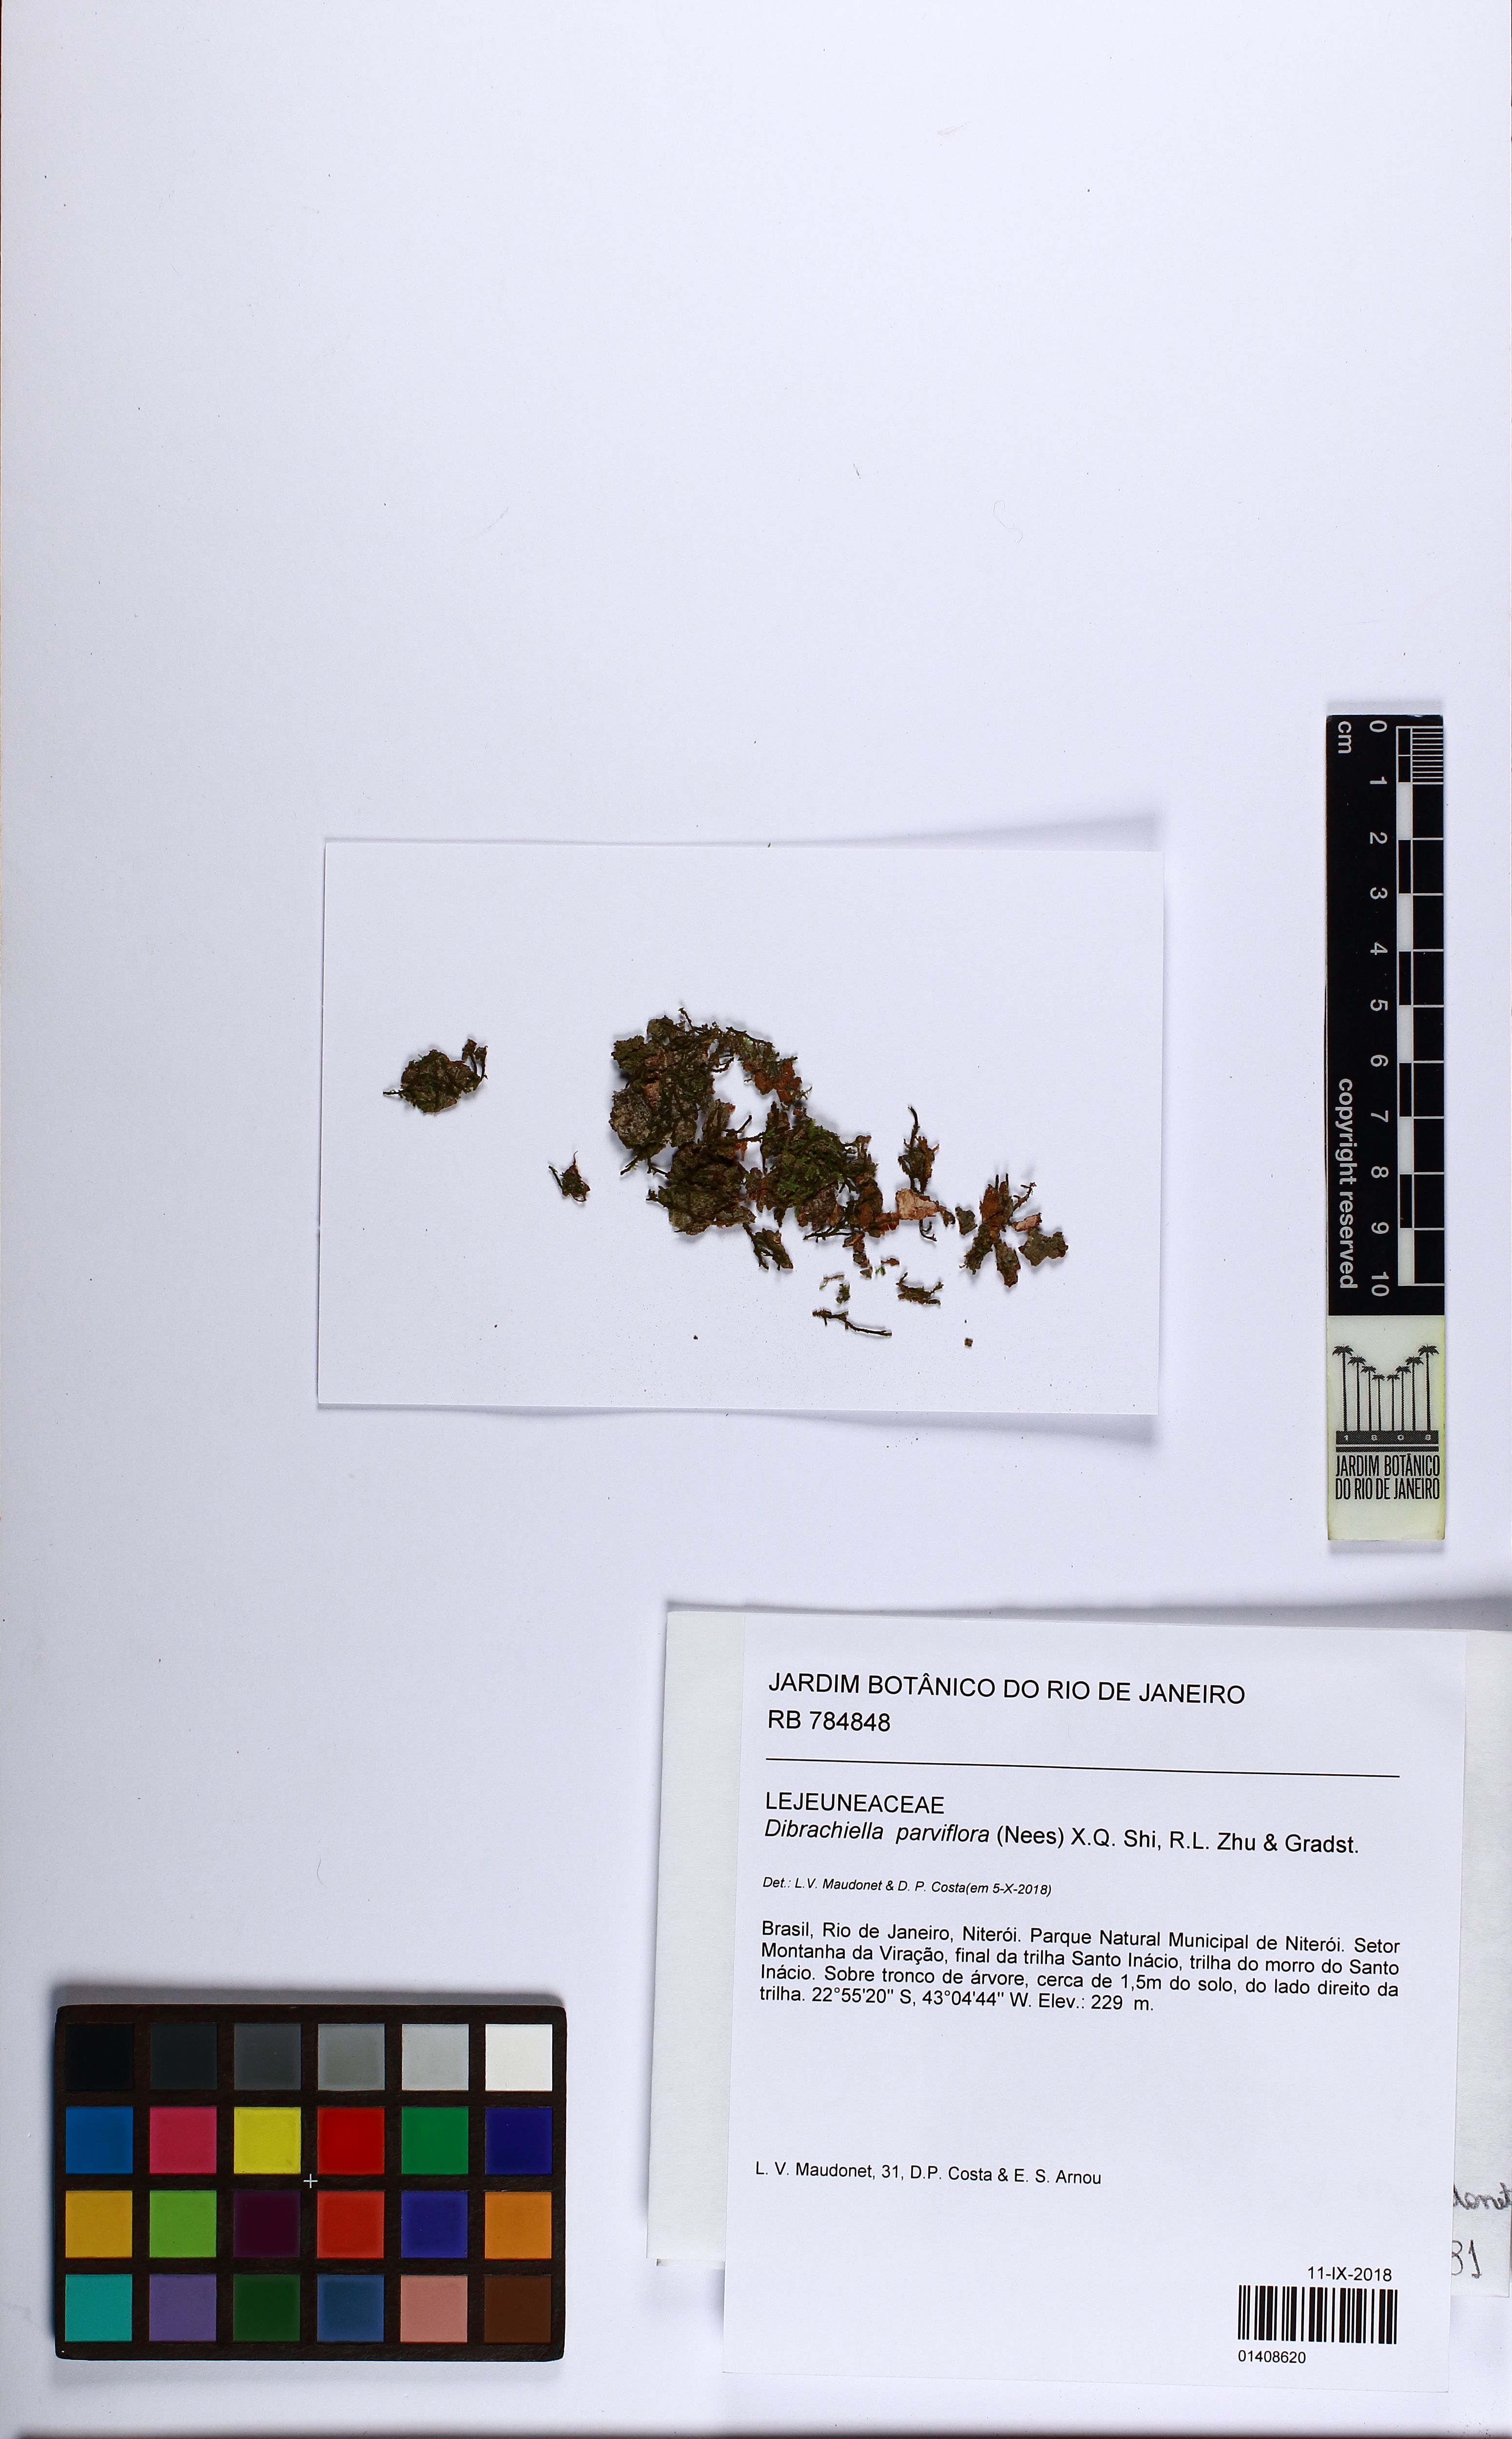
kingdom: Plantae
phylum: Marchantiophyta
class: Jungermanniopsida
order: Porellales
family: Lejeuneaceae
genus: Dibrachiella
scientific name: Dibrachiella parviflora
